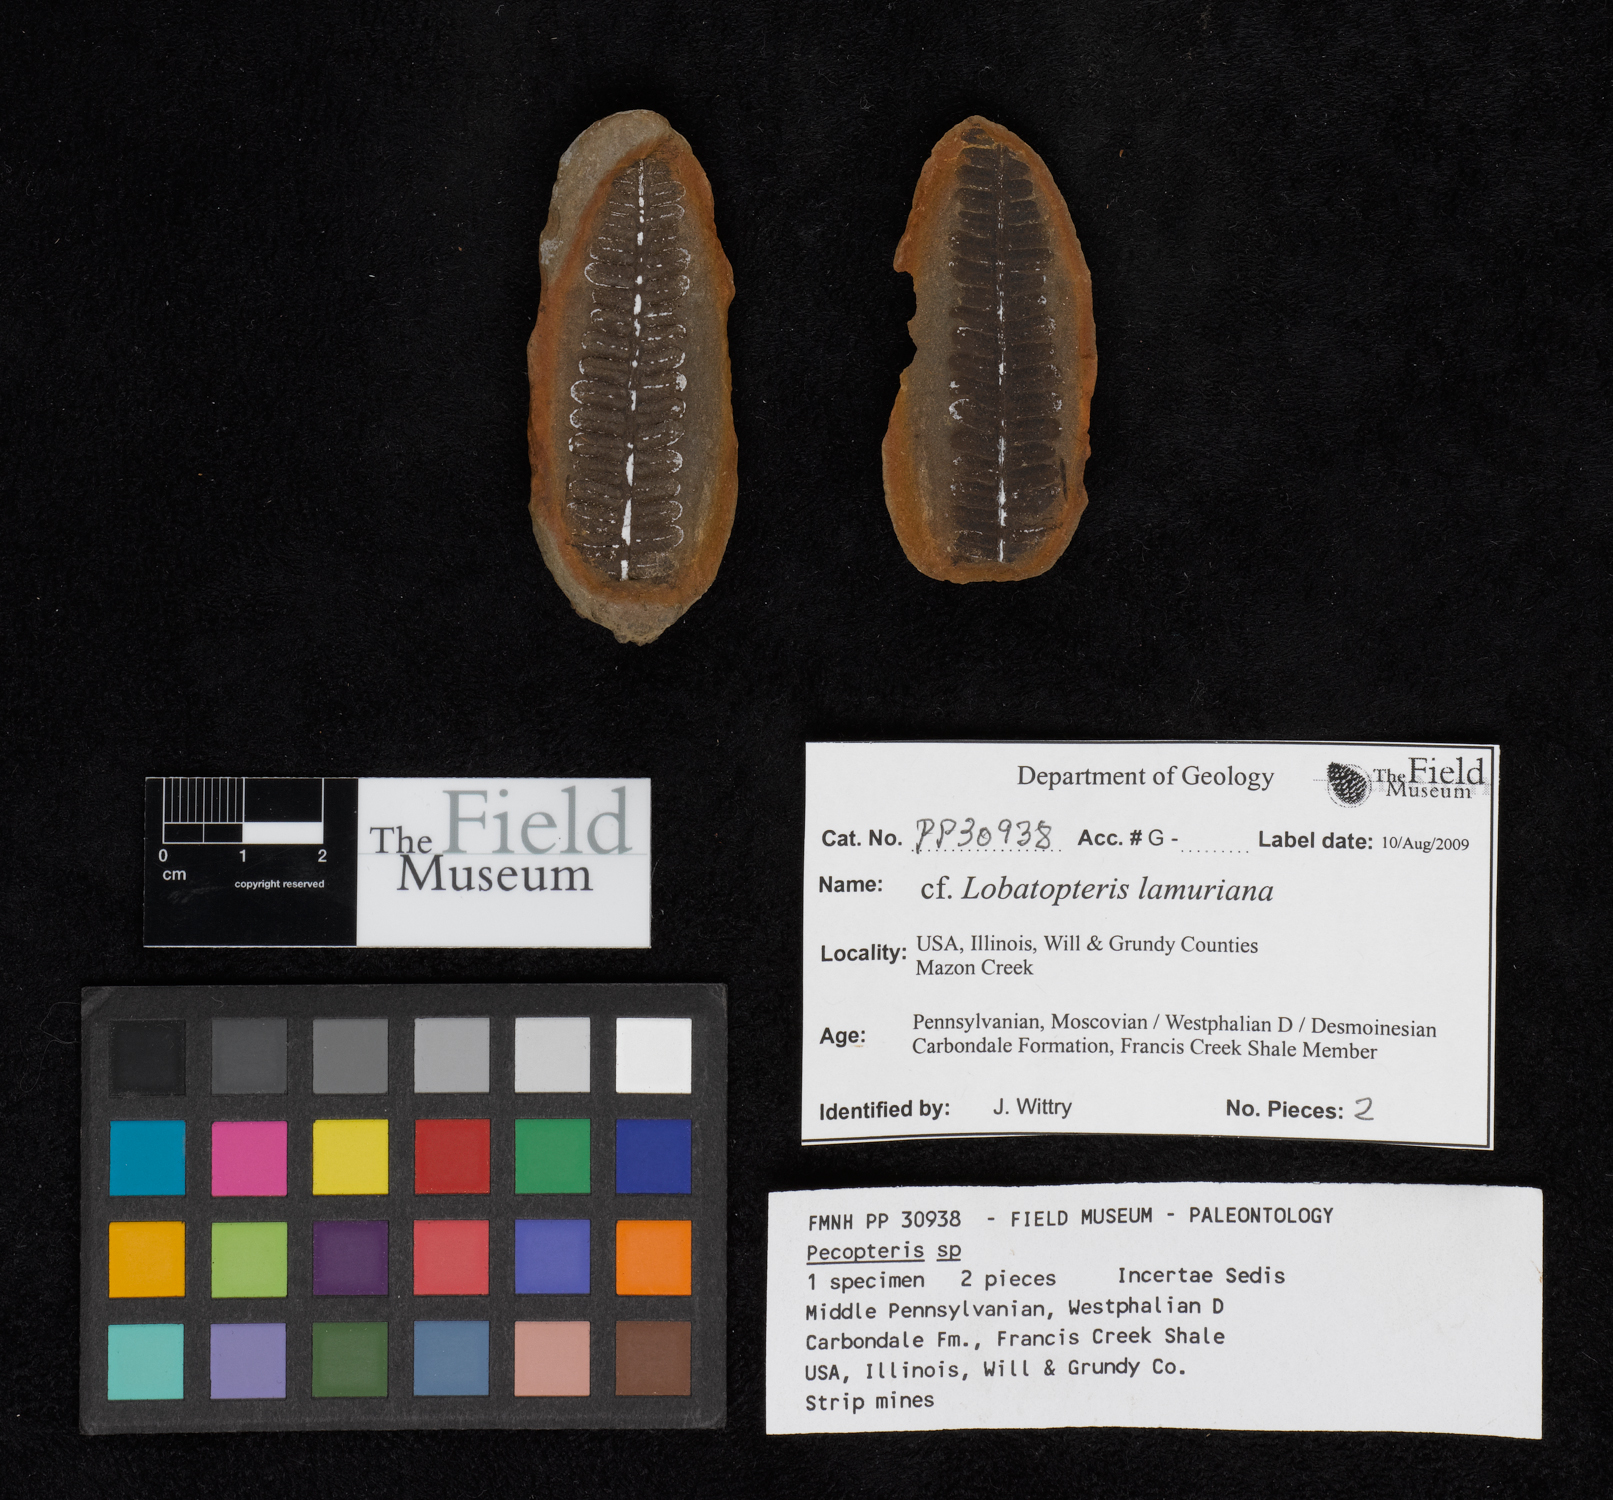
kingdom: Plantae
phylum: Tracheophyta
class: Polypodiopsida
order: Marattiales
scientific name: Marattiales
